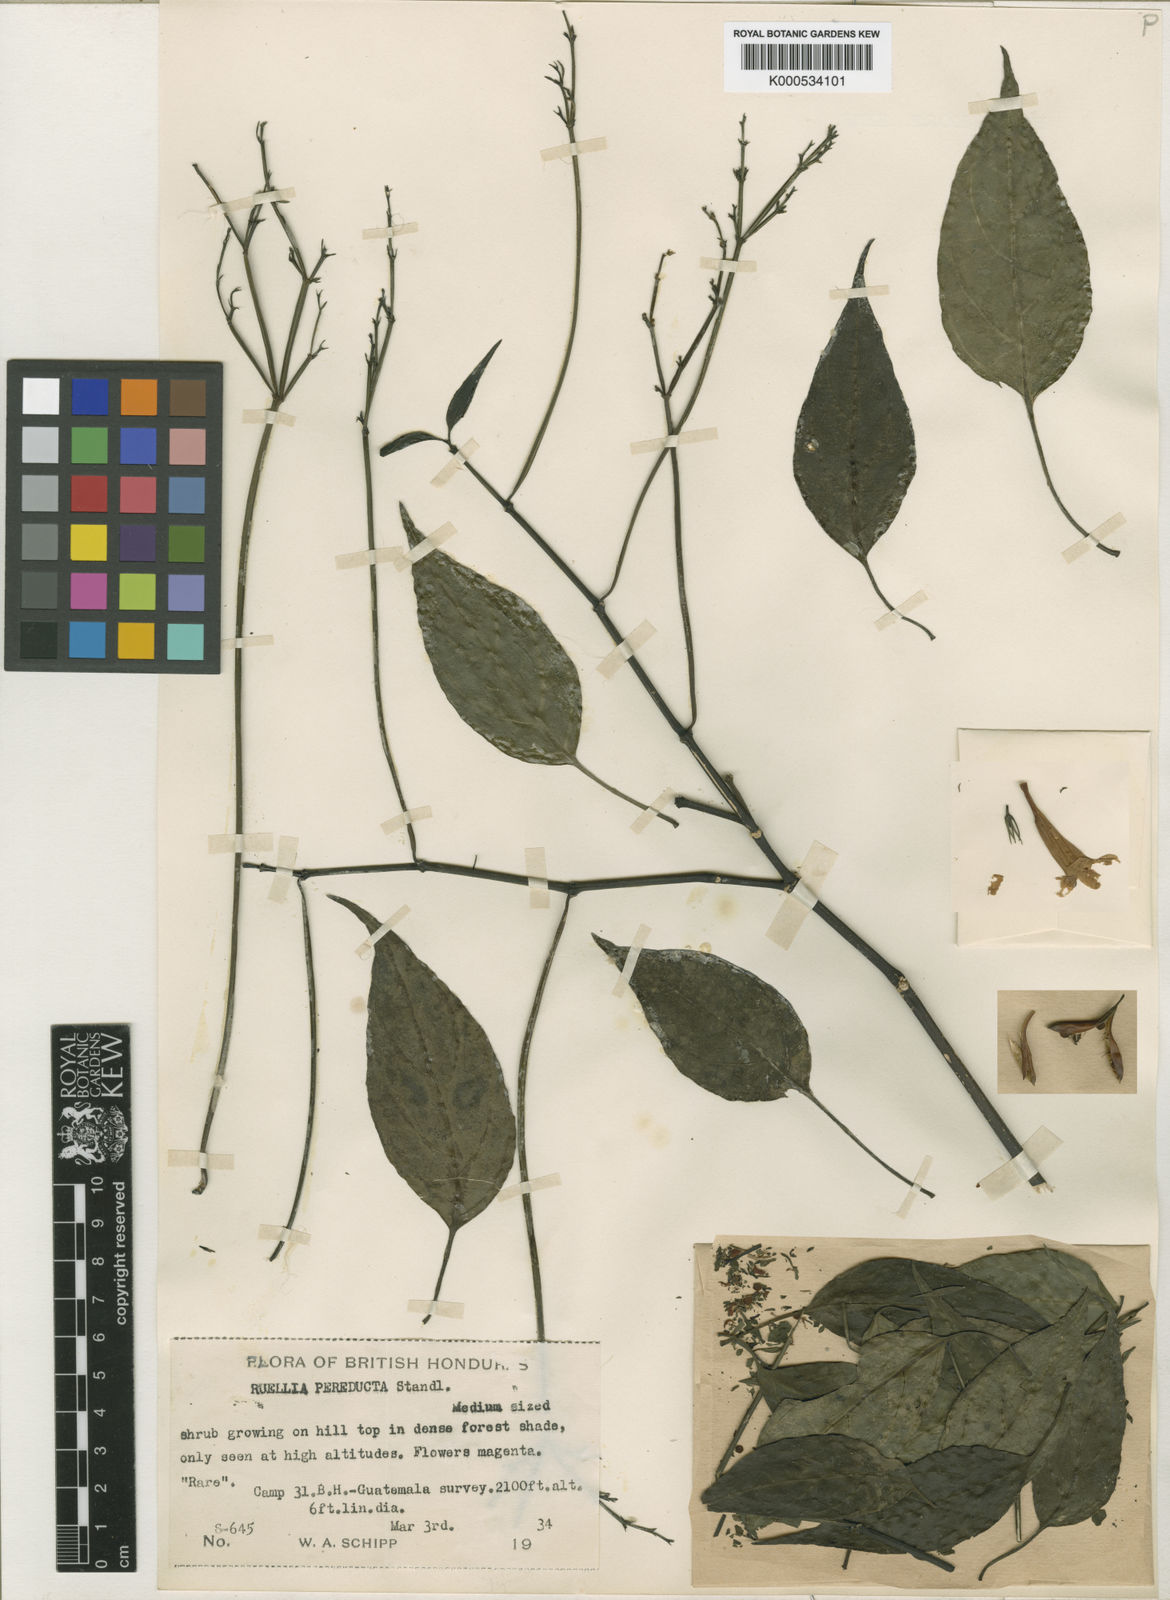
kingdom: Plantae
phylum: Tracheophyta
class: Magnoliopsida
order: Lamiales
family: Acanthaceae
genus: Ruellia
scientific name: Ruellia
